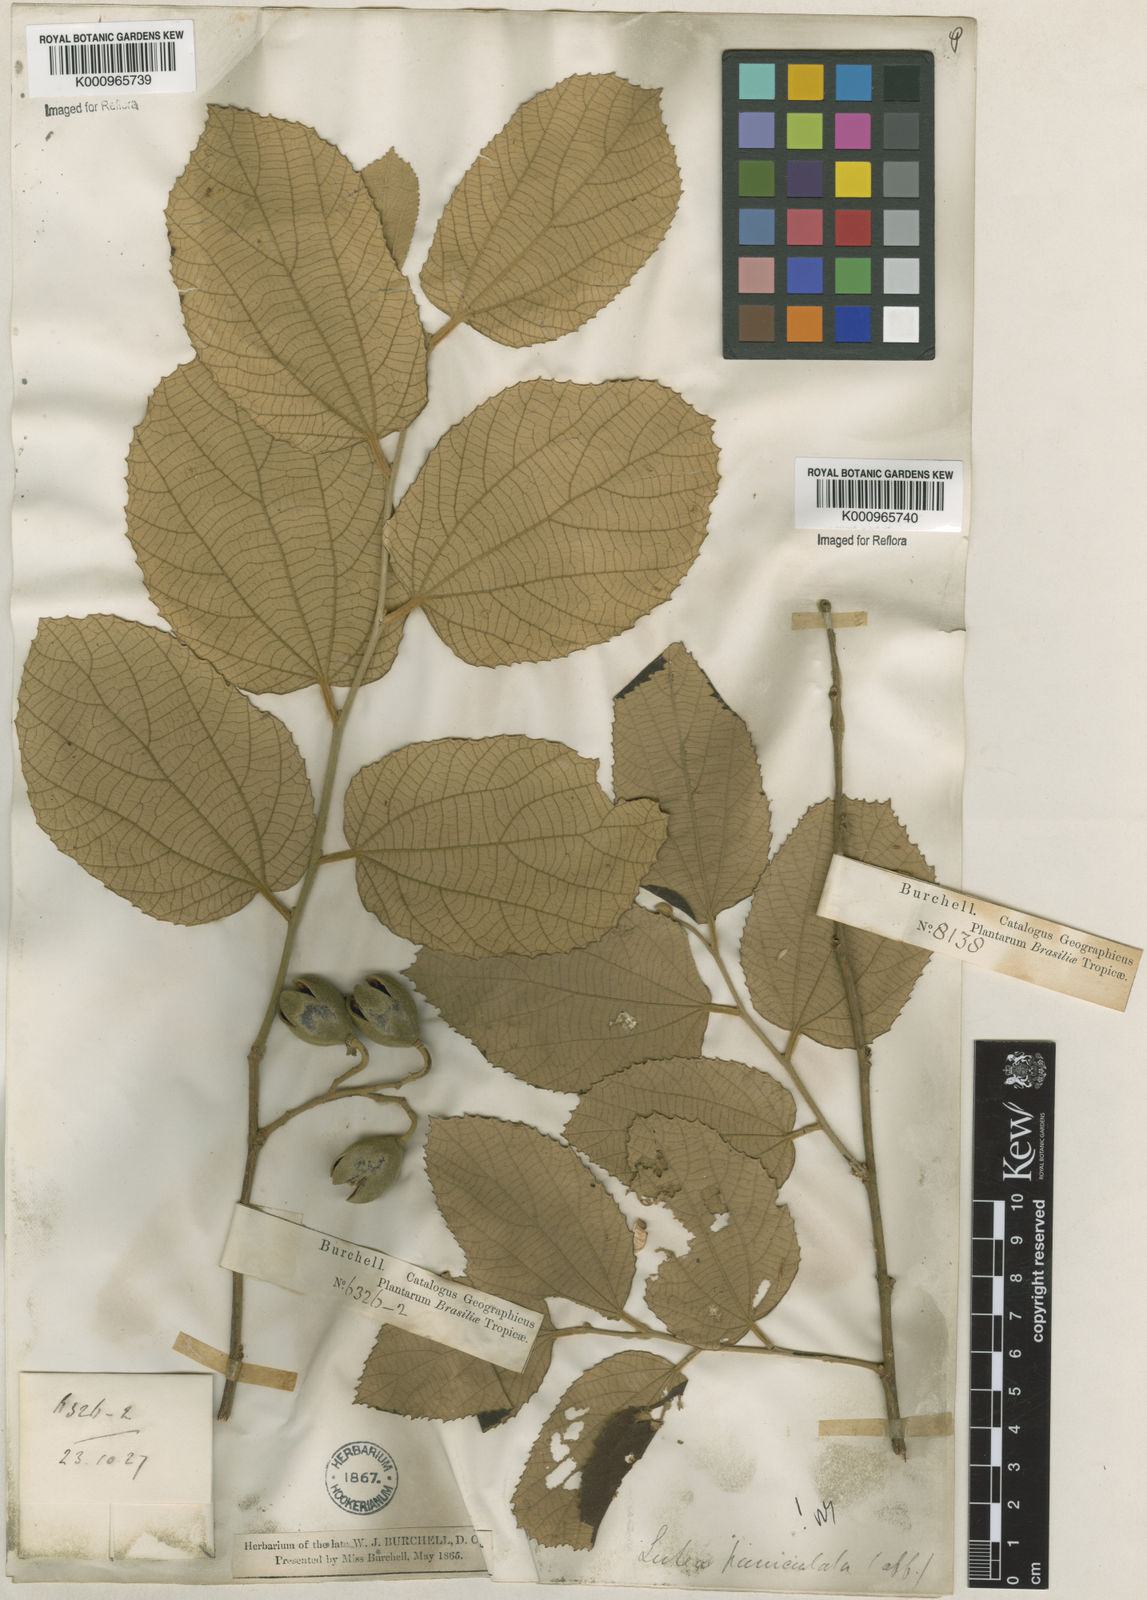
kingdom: Plantae
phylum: Tracheophyta
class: Magnoliopsida
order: Malvales
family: Malvaceae
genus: Luehea
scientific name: Luehea paniculata
